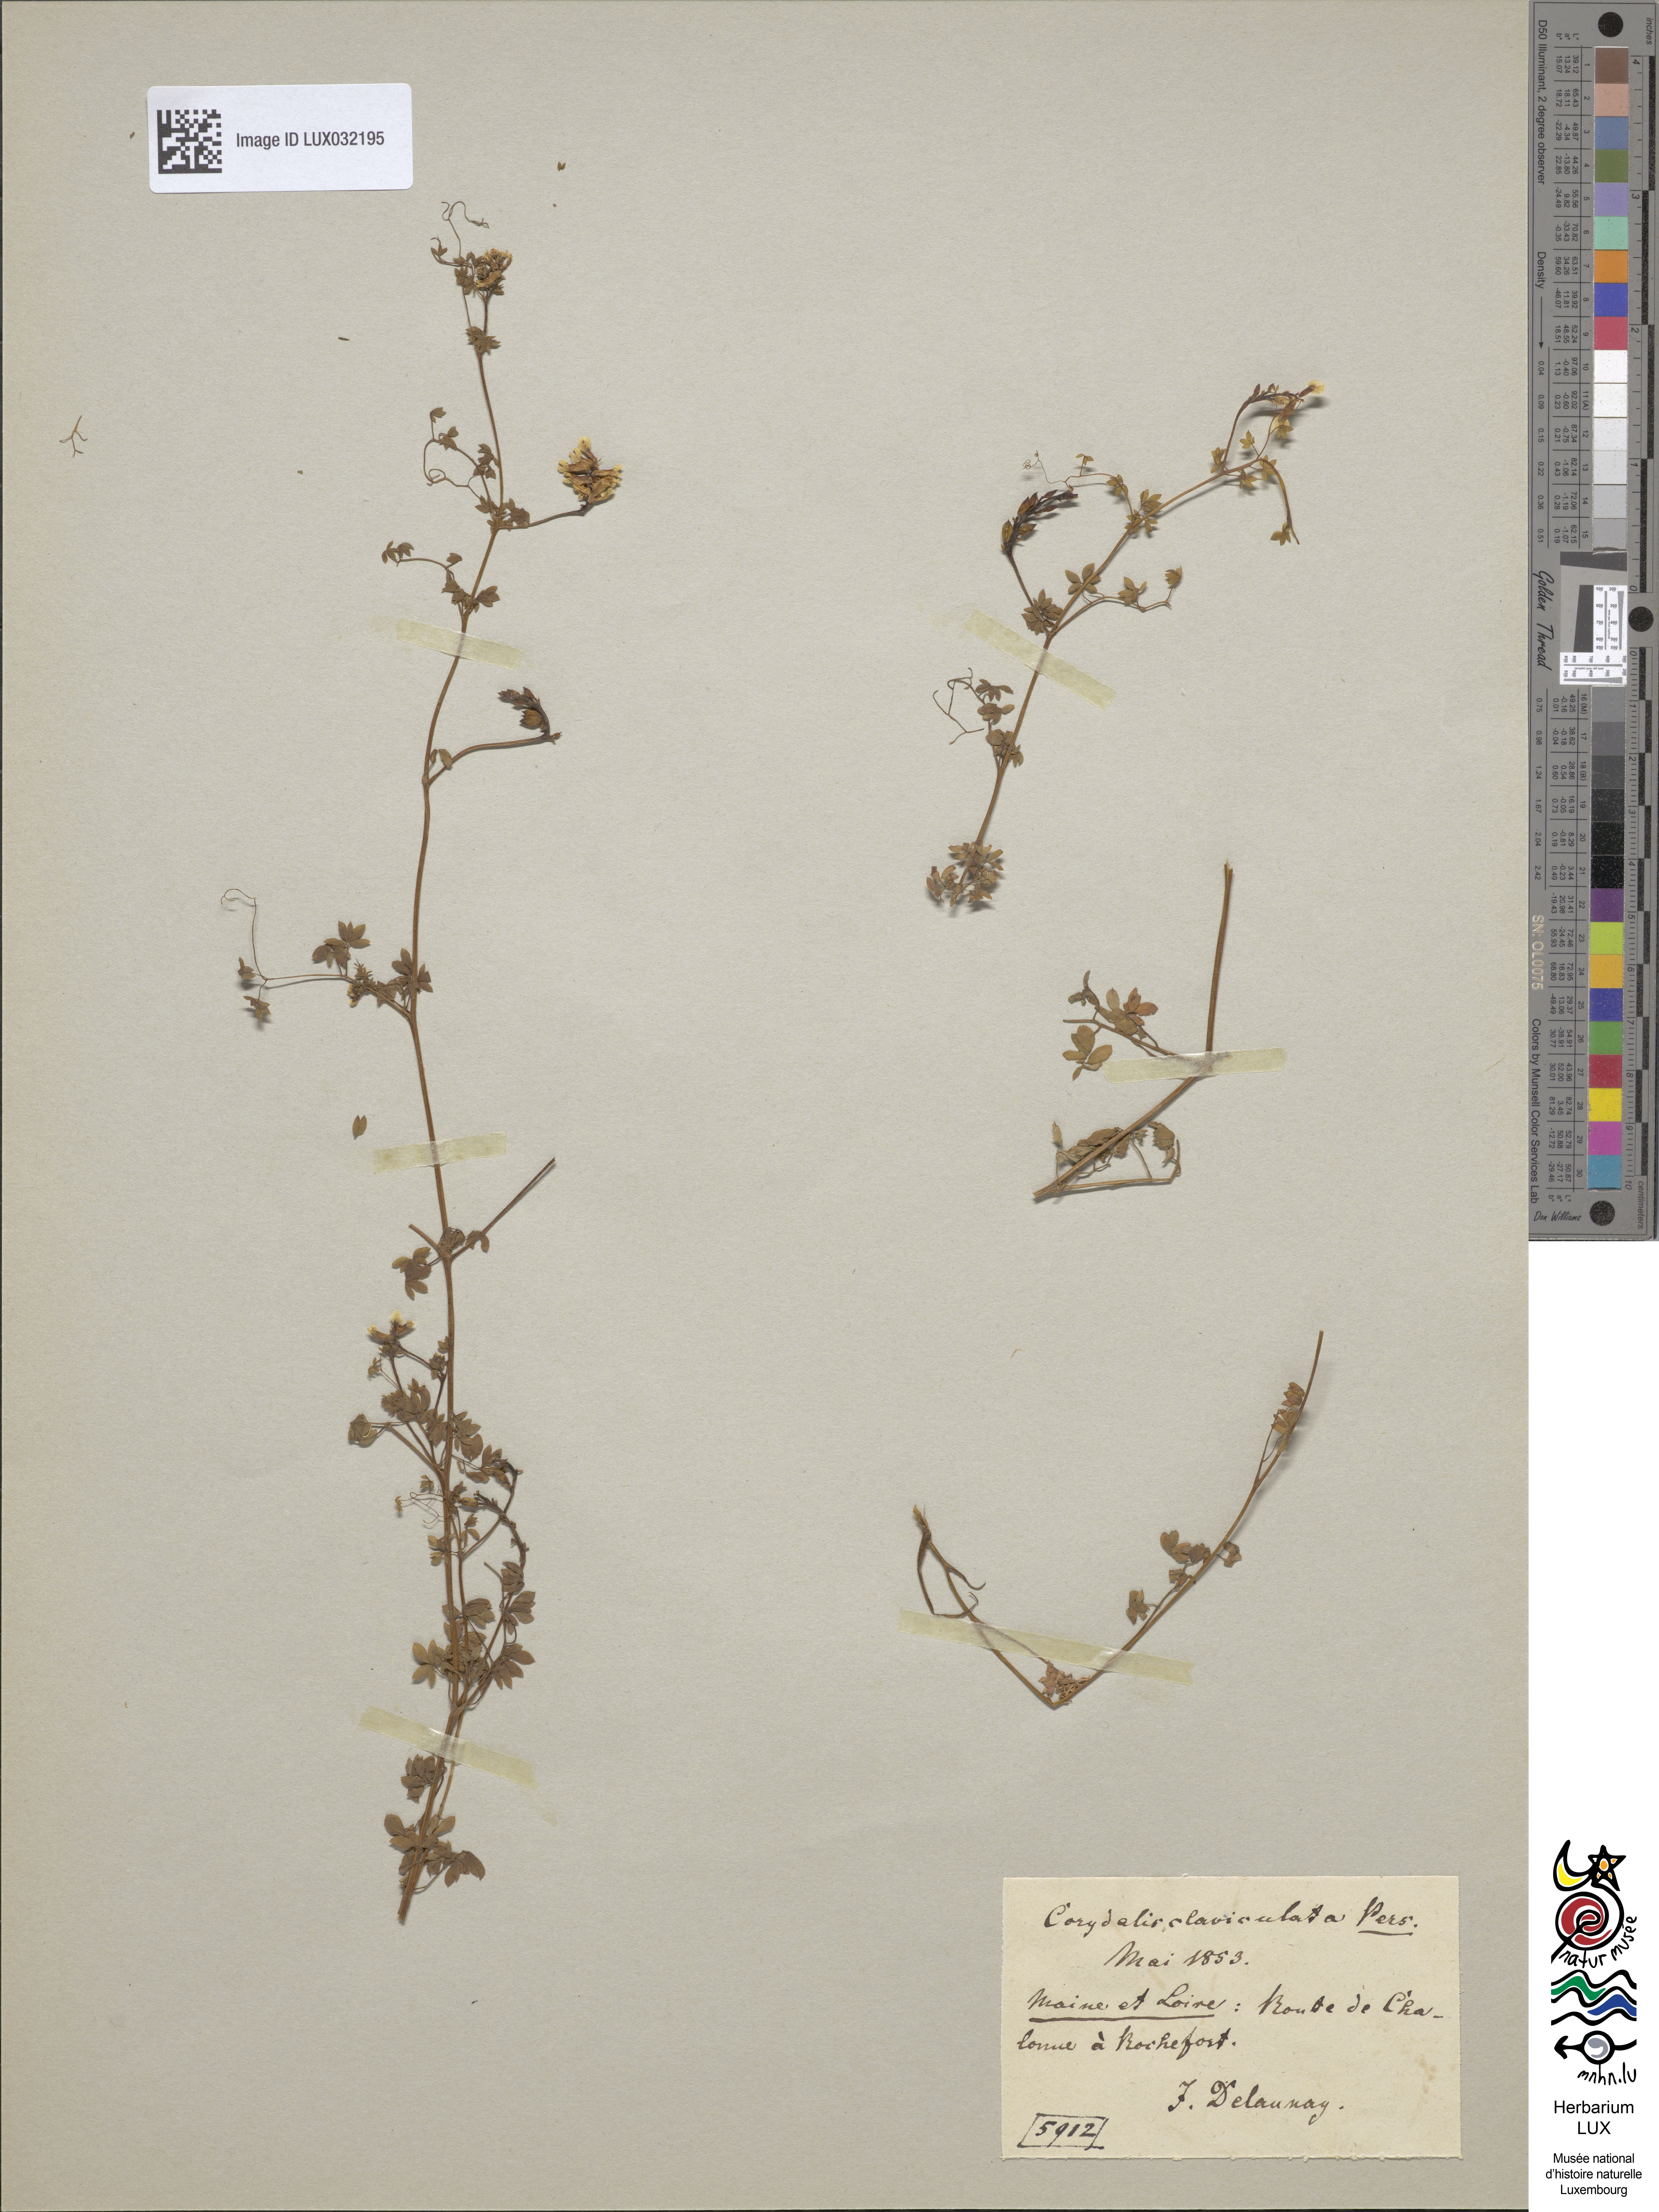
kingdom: Plantae
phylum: Tracheophyta
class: Magnoliopsida
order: Ranunculales
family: Papaveraceae
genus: Ceratocapnos
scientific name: Ceratocapnos claviculata
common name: Climbing corydalis
